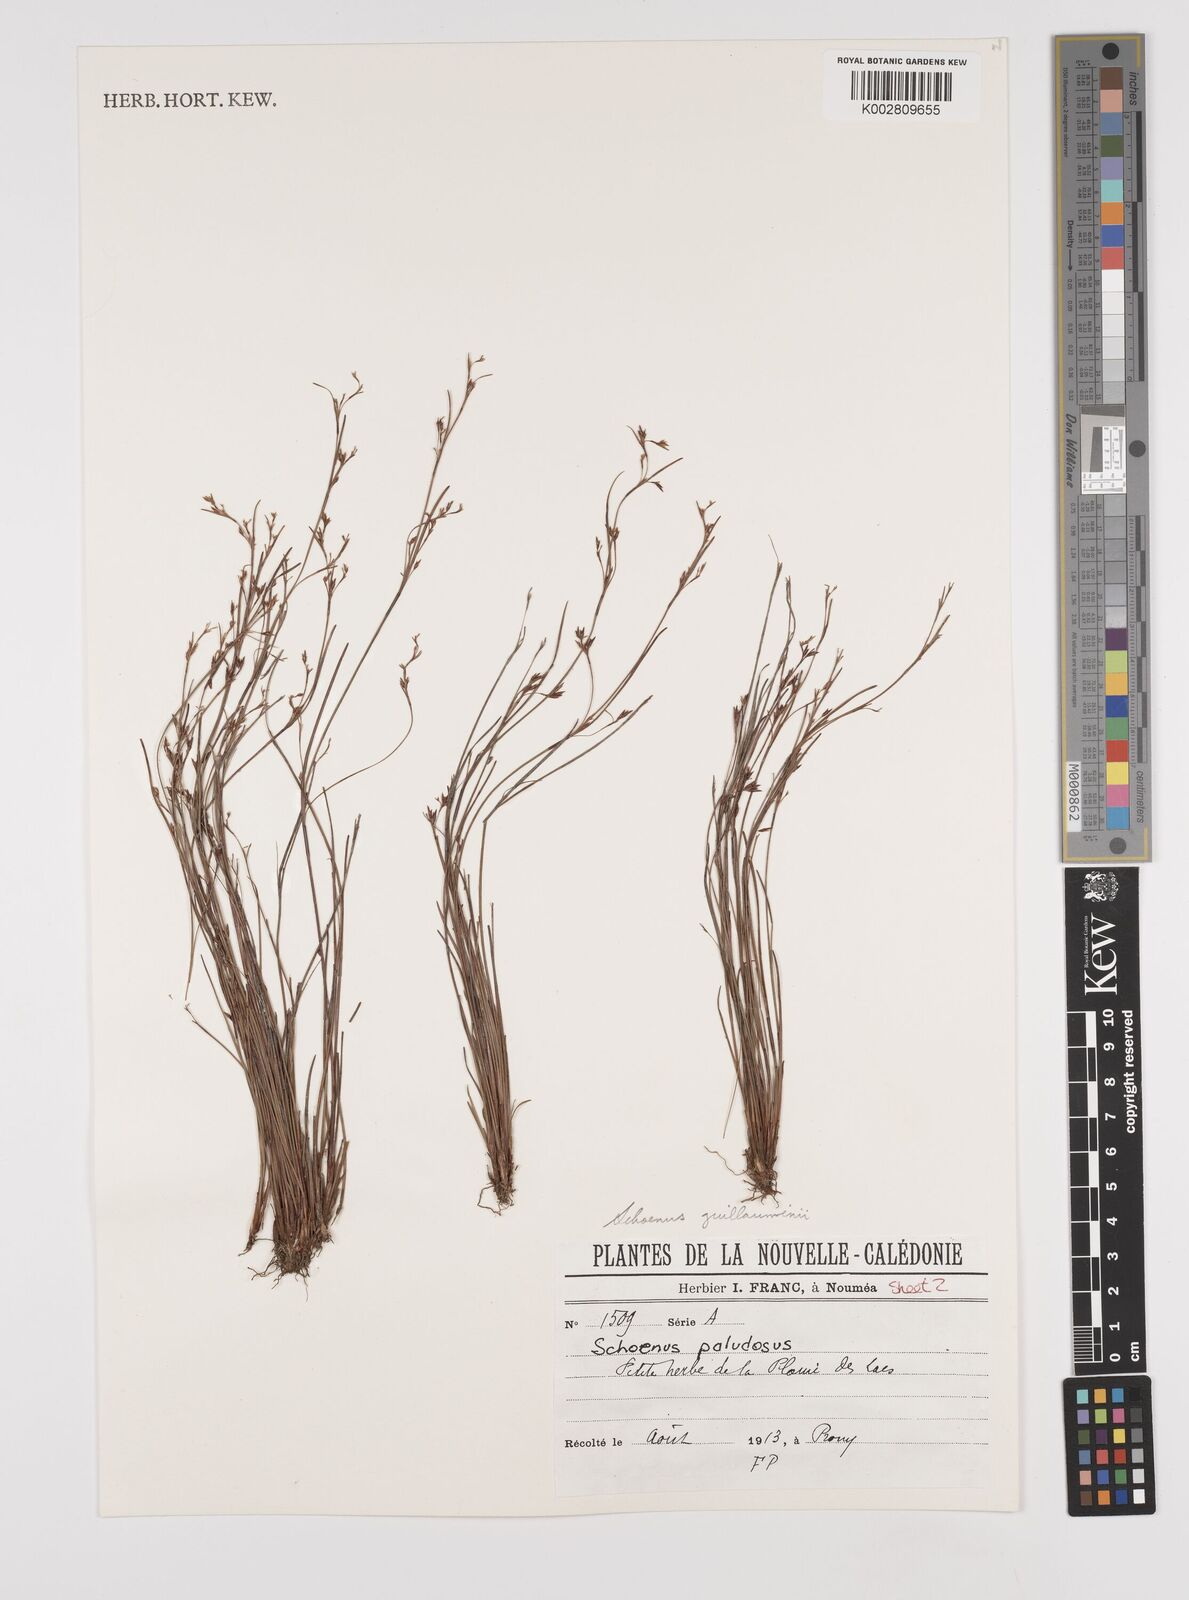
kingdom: Plantae
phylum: Tracheophyta
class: Liliopsida
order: Poales
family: Cyperaceae
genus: Anthelepis
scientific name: Anthelepis guillauminii
